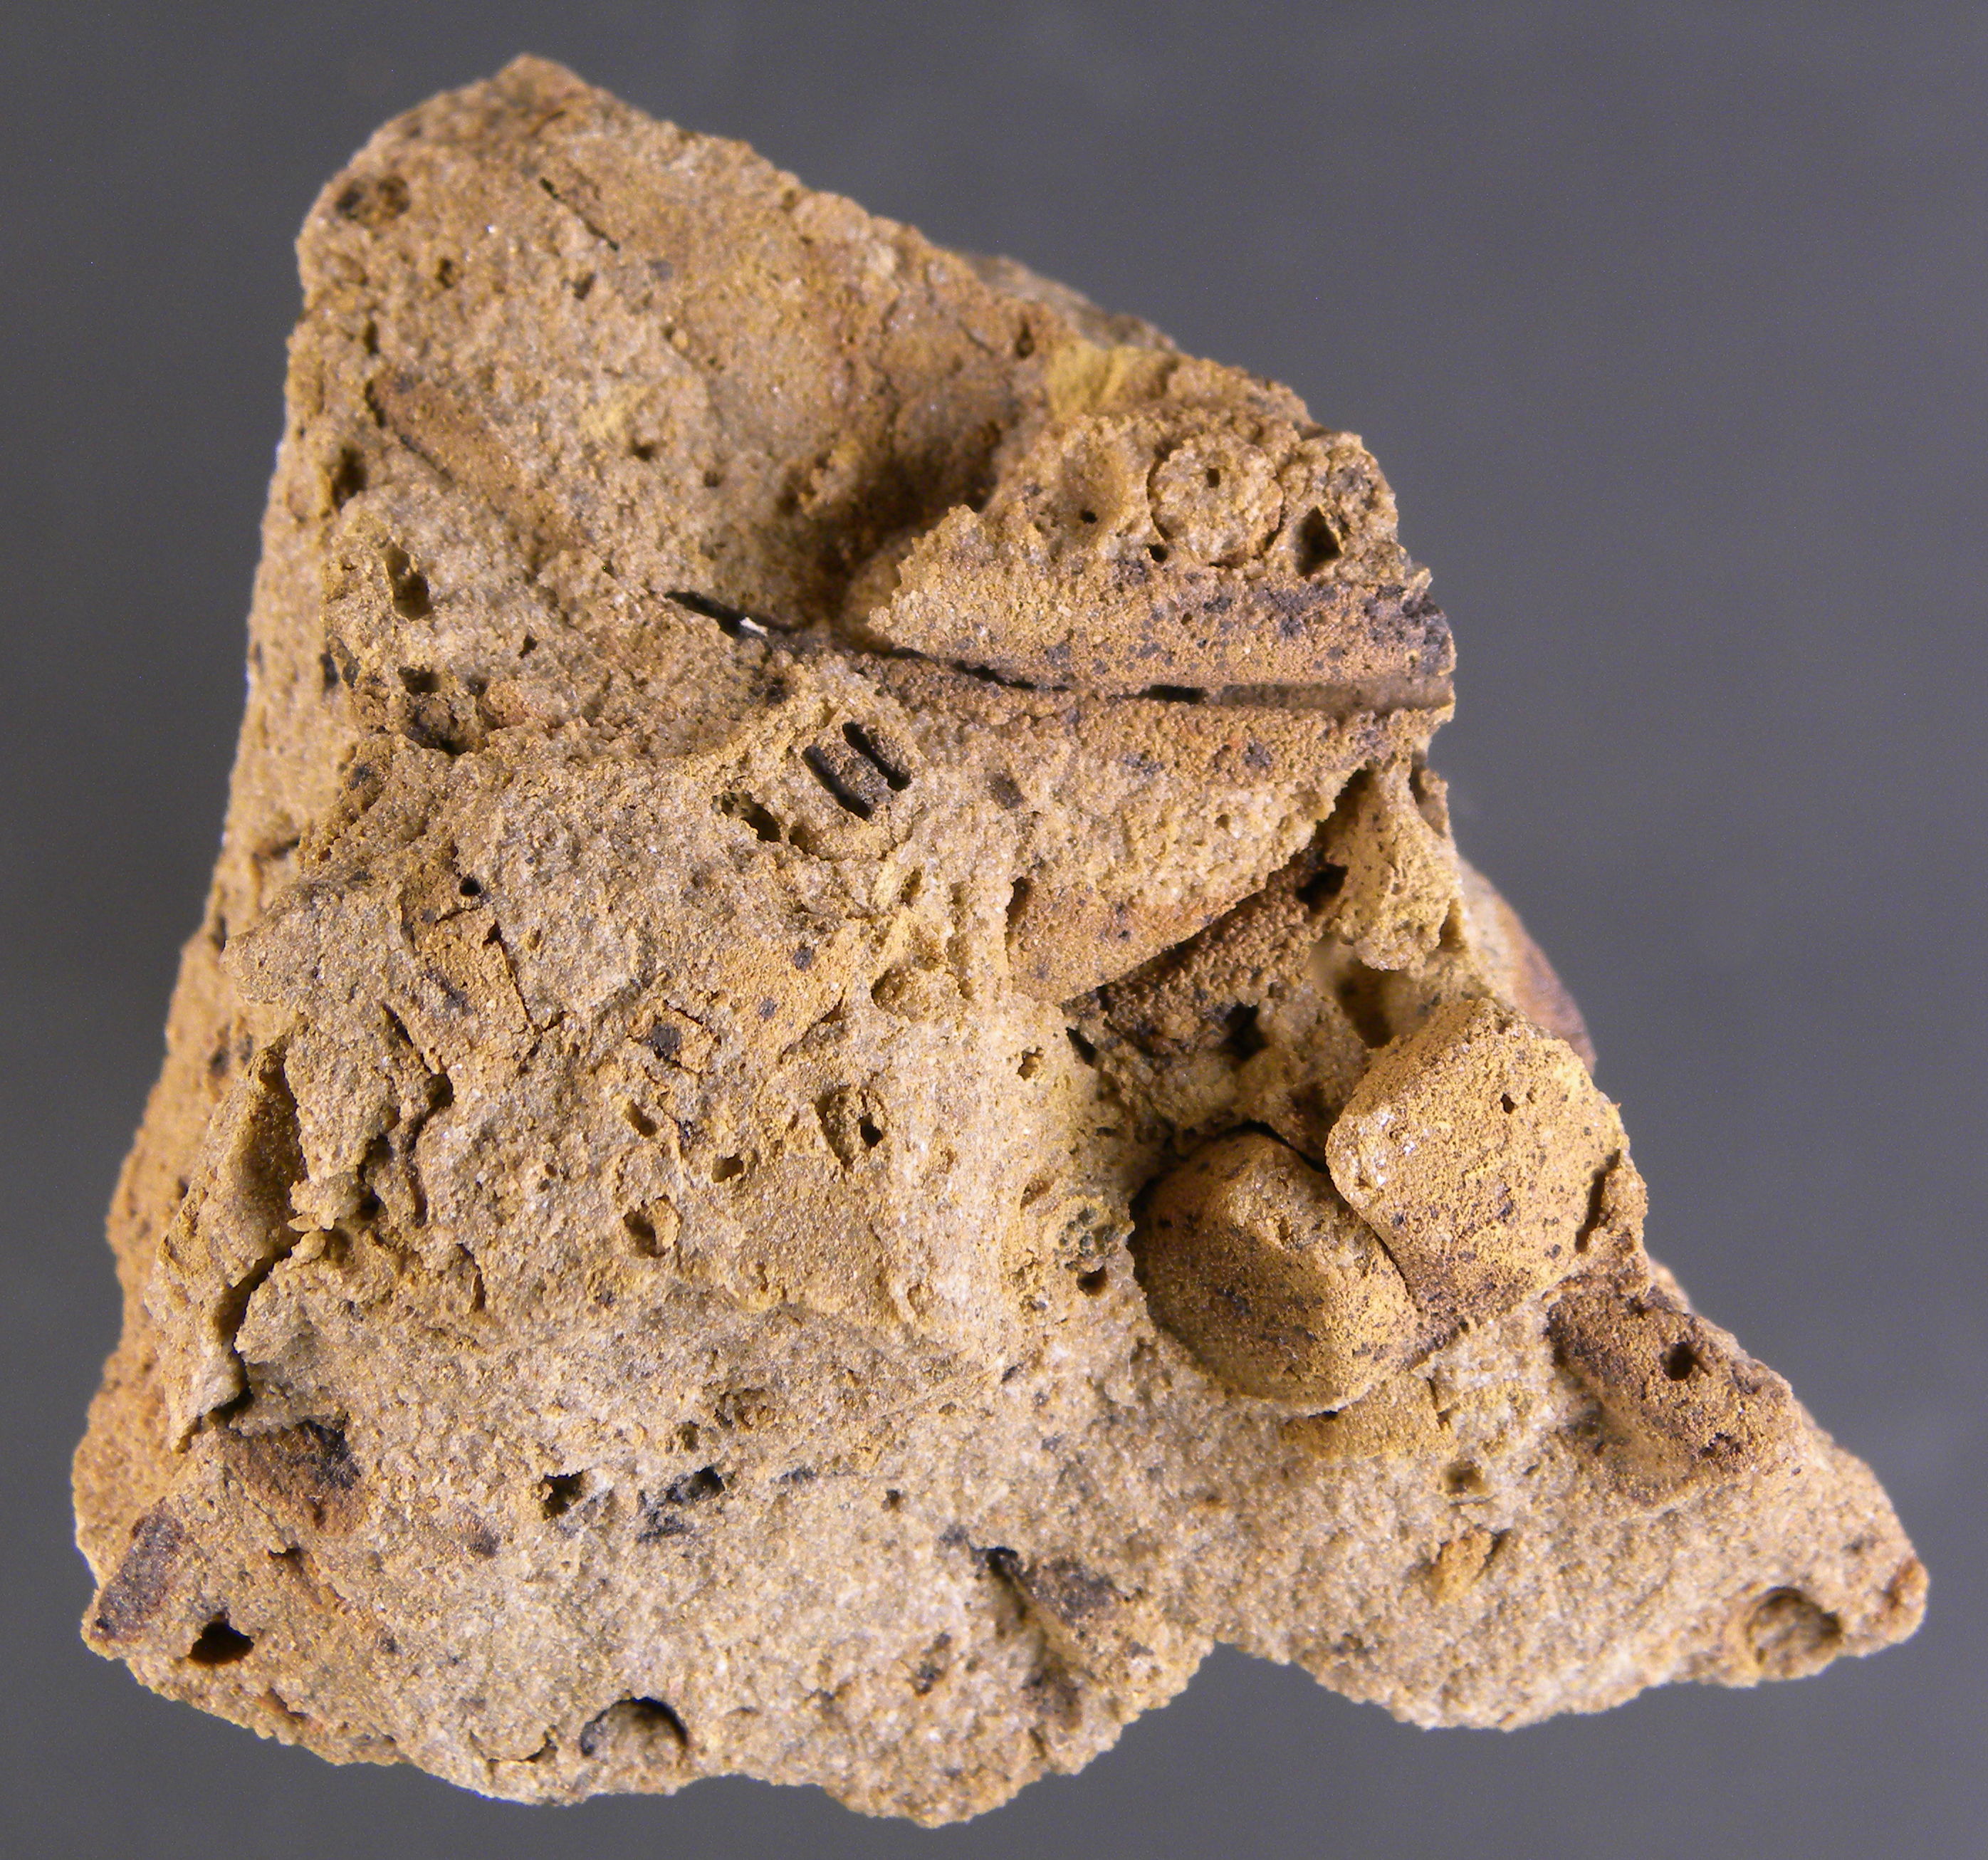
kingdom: Animalia
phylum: Brachiopoda
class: Rhynchonellata
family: Cyrtinidae
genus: Cyrtina
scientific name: Cyrtina
